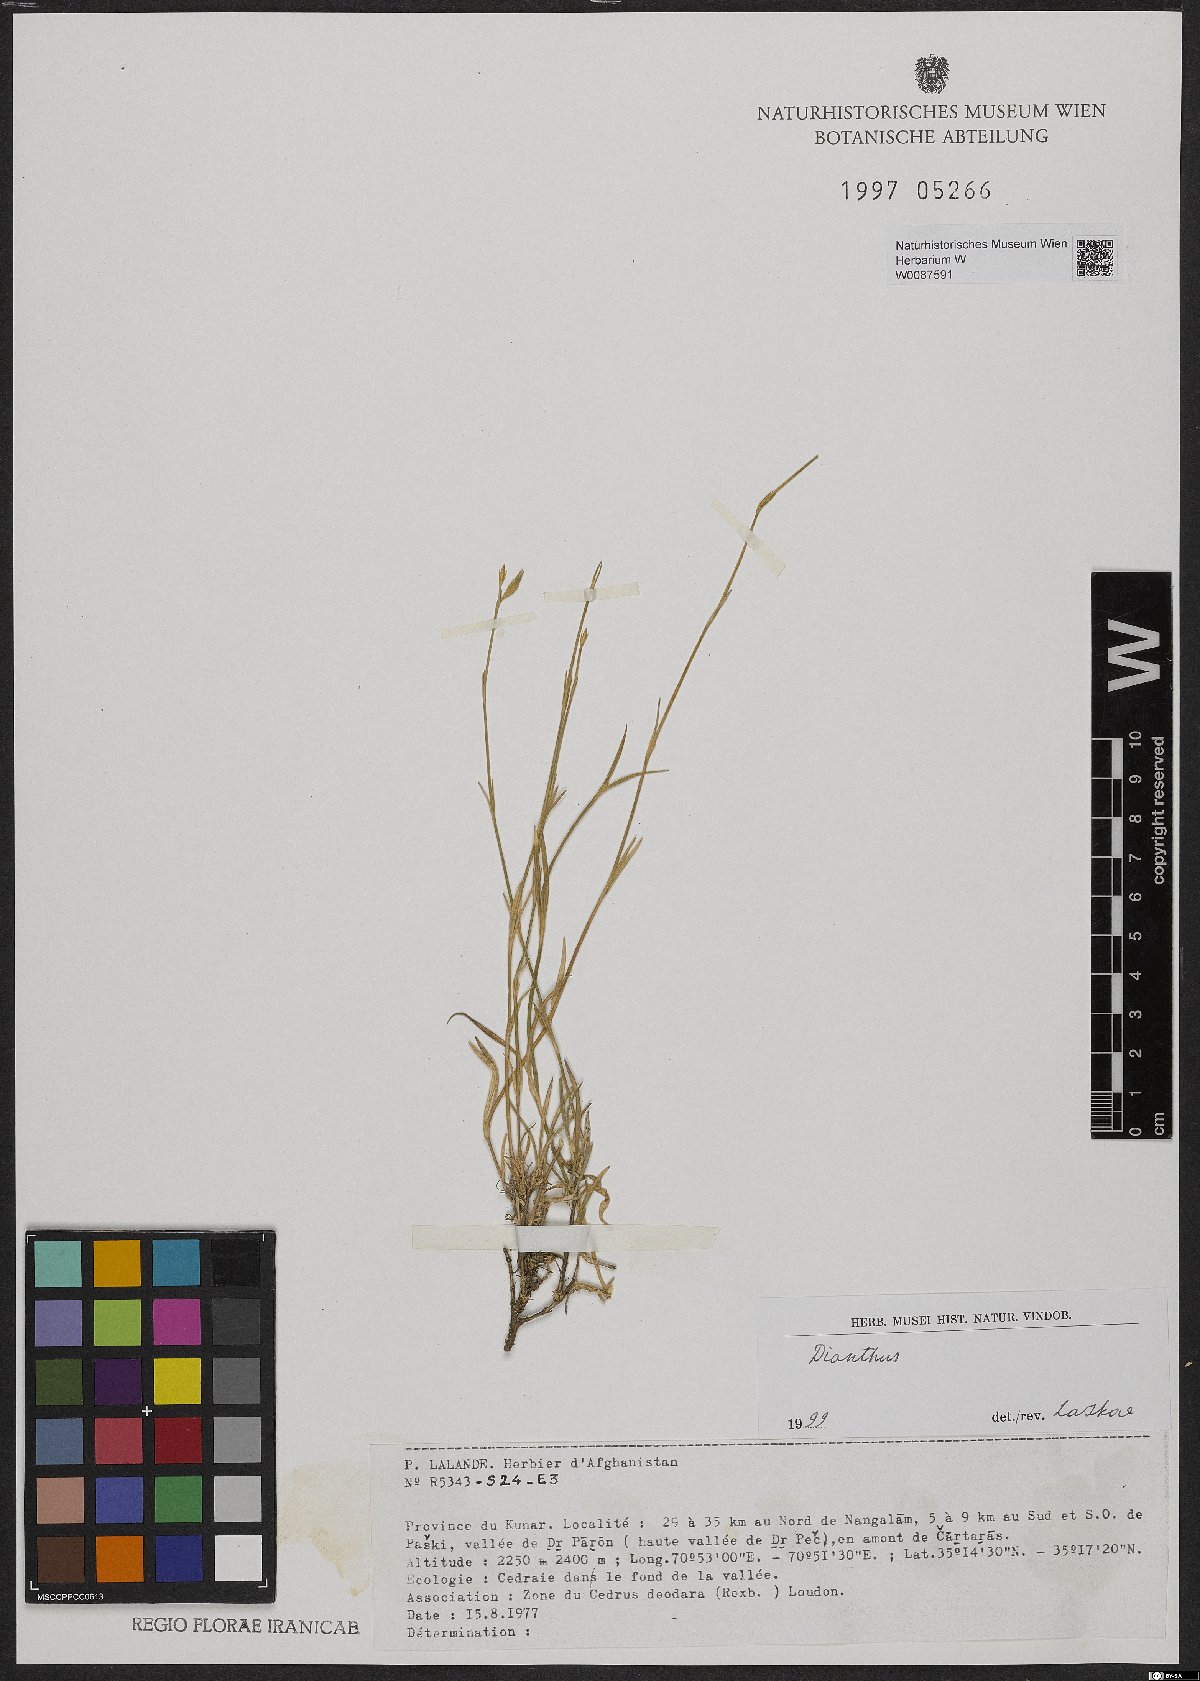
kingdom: Plantae
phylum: Tracheophyta
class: Magnoliopsida
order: Caryophyllales
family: Caryophyllaceae
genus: Dianthus
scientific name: Dianthus
